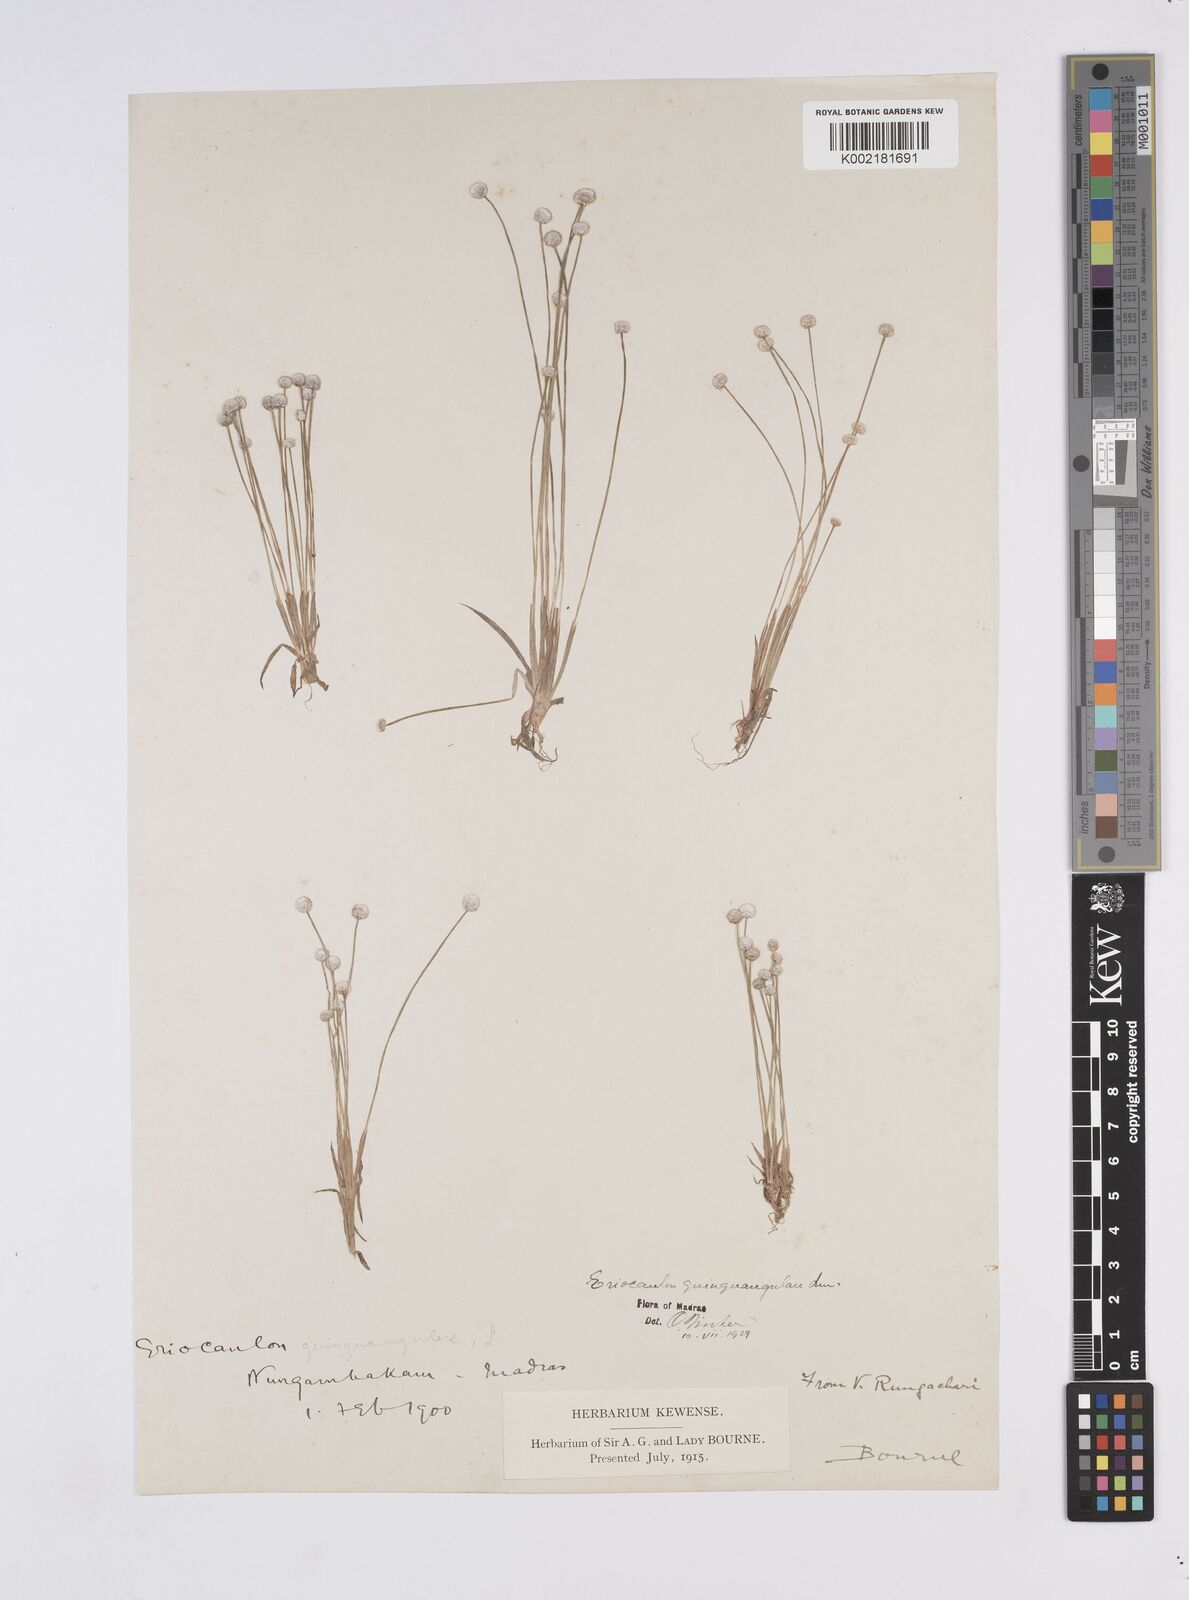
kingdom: Plantae
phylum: Tracheophyta
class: Liliopsida
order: Poales
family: Eriocaulaceae
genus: Eriocaulon
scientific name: Eriocaulon quinquangulare
